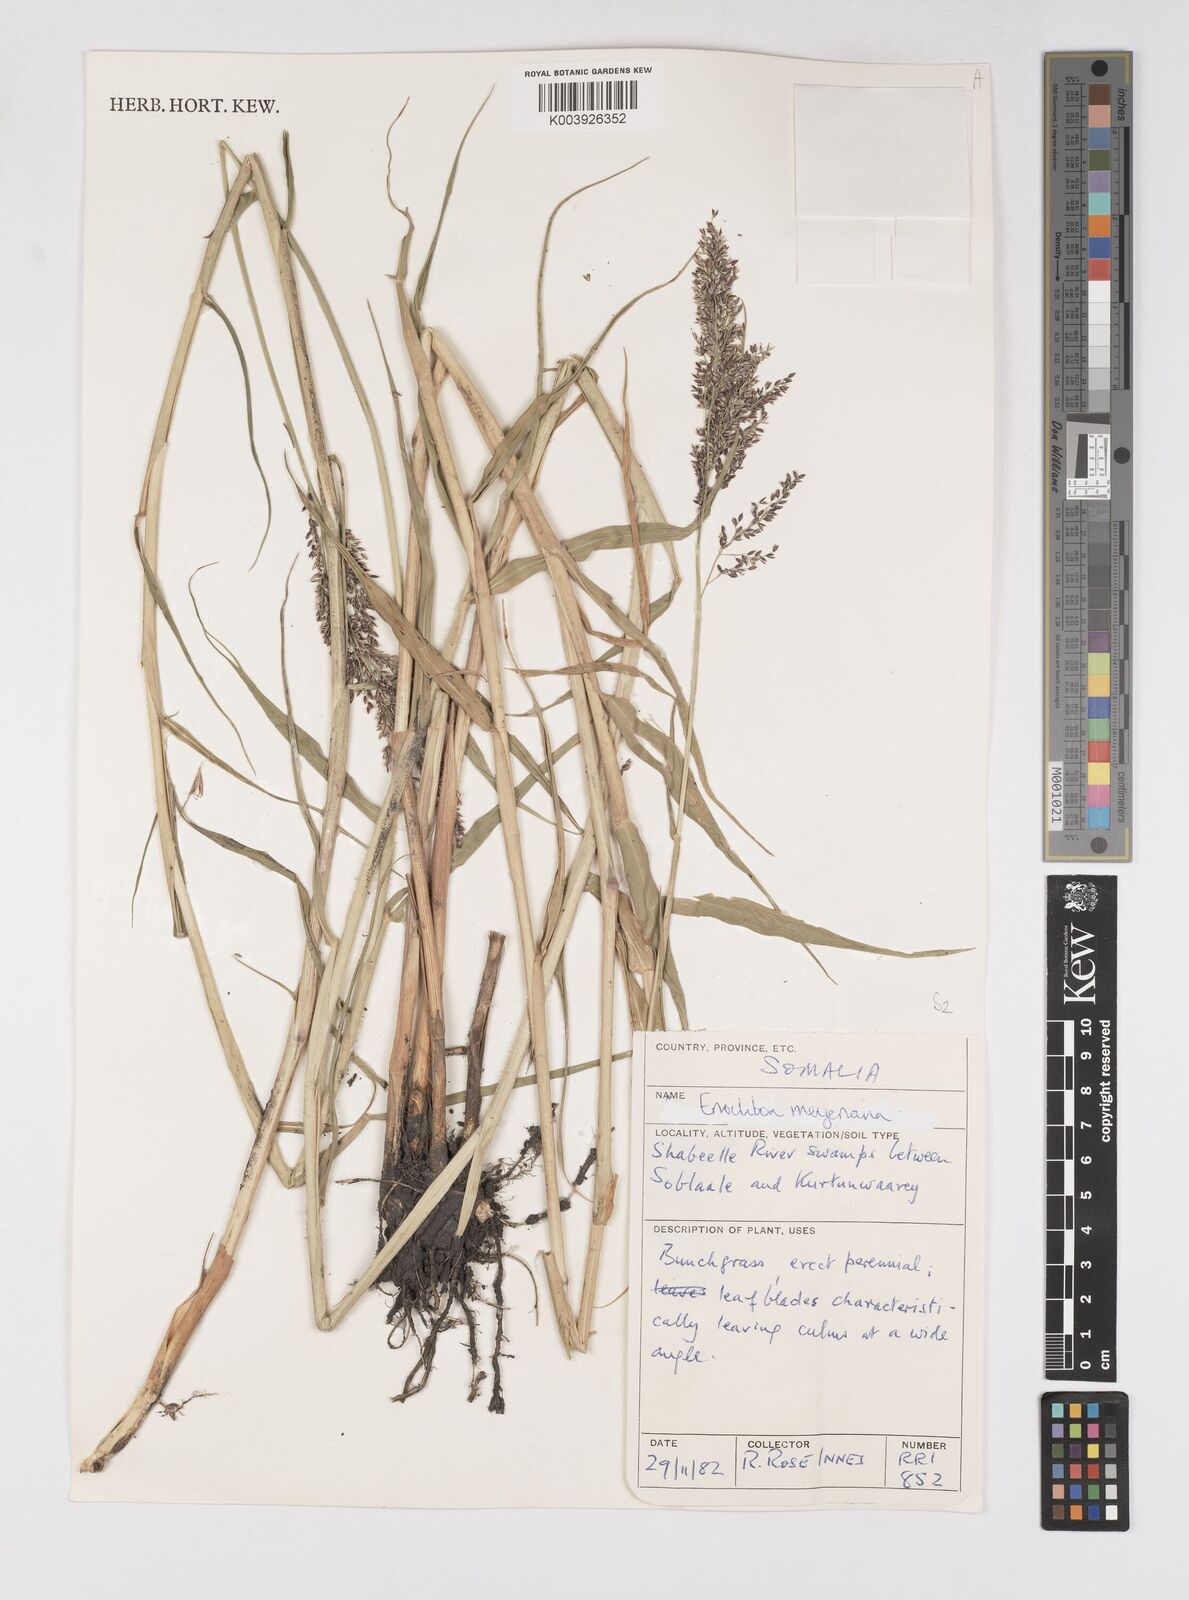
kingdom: Plantae
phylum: Tracheophyta
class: Liliopsida
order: Poales
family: Poaceae
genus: Eriochloa
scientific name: Eriochloa meyeriana
